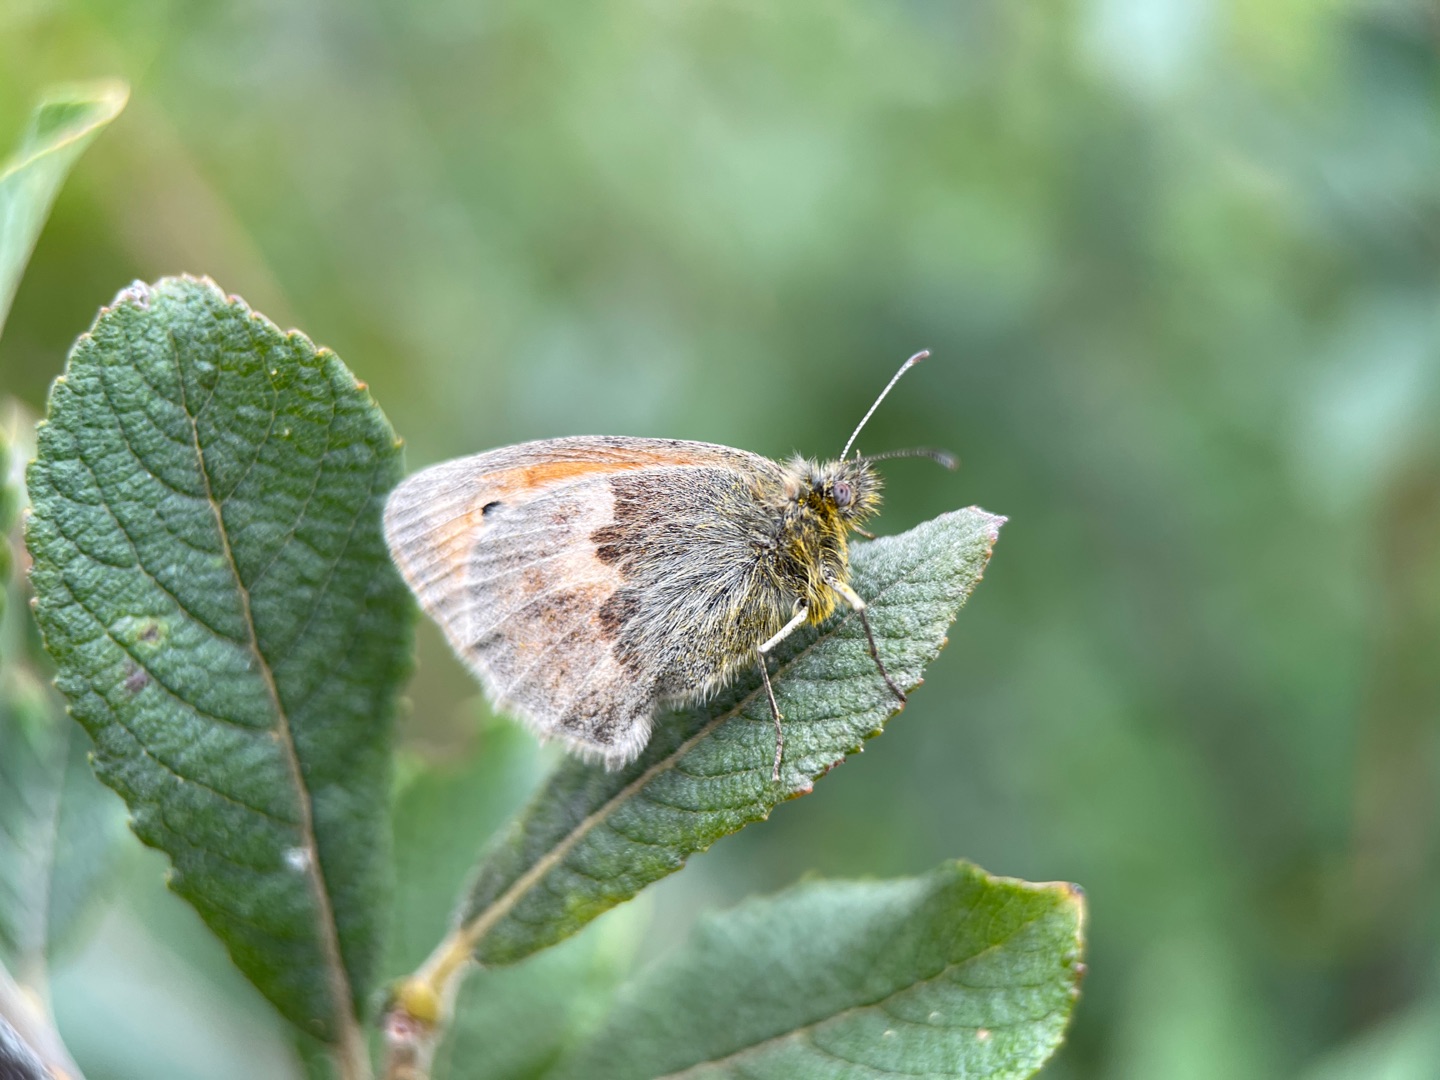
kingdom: Animalia
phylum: Arthropoda
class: Insecta
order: Lepidoptera
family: Nymphalidae
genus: Coenonympha
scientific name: Coenonympha pamphilus
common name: Okkergul randøje
